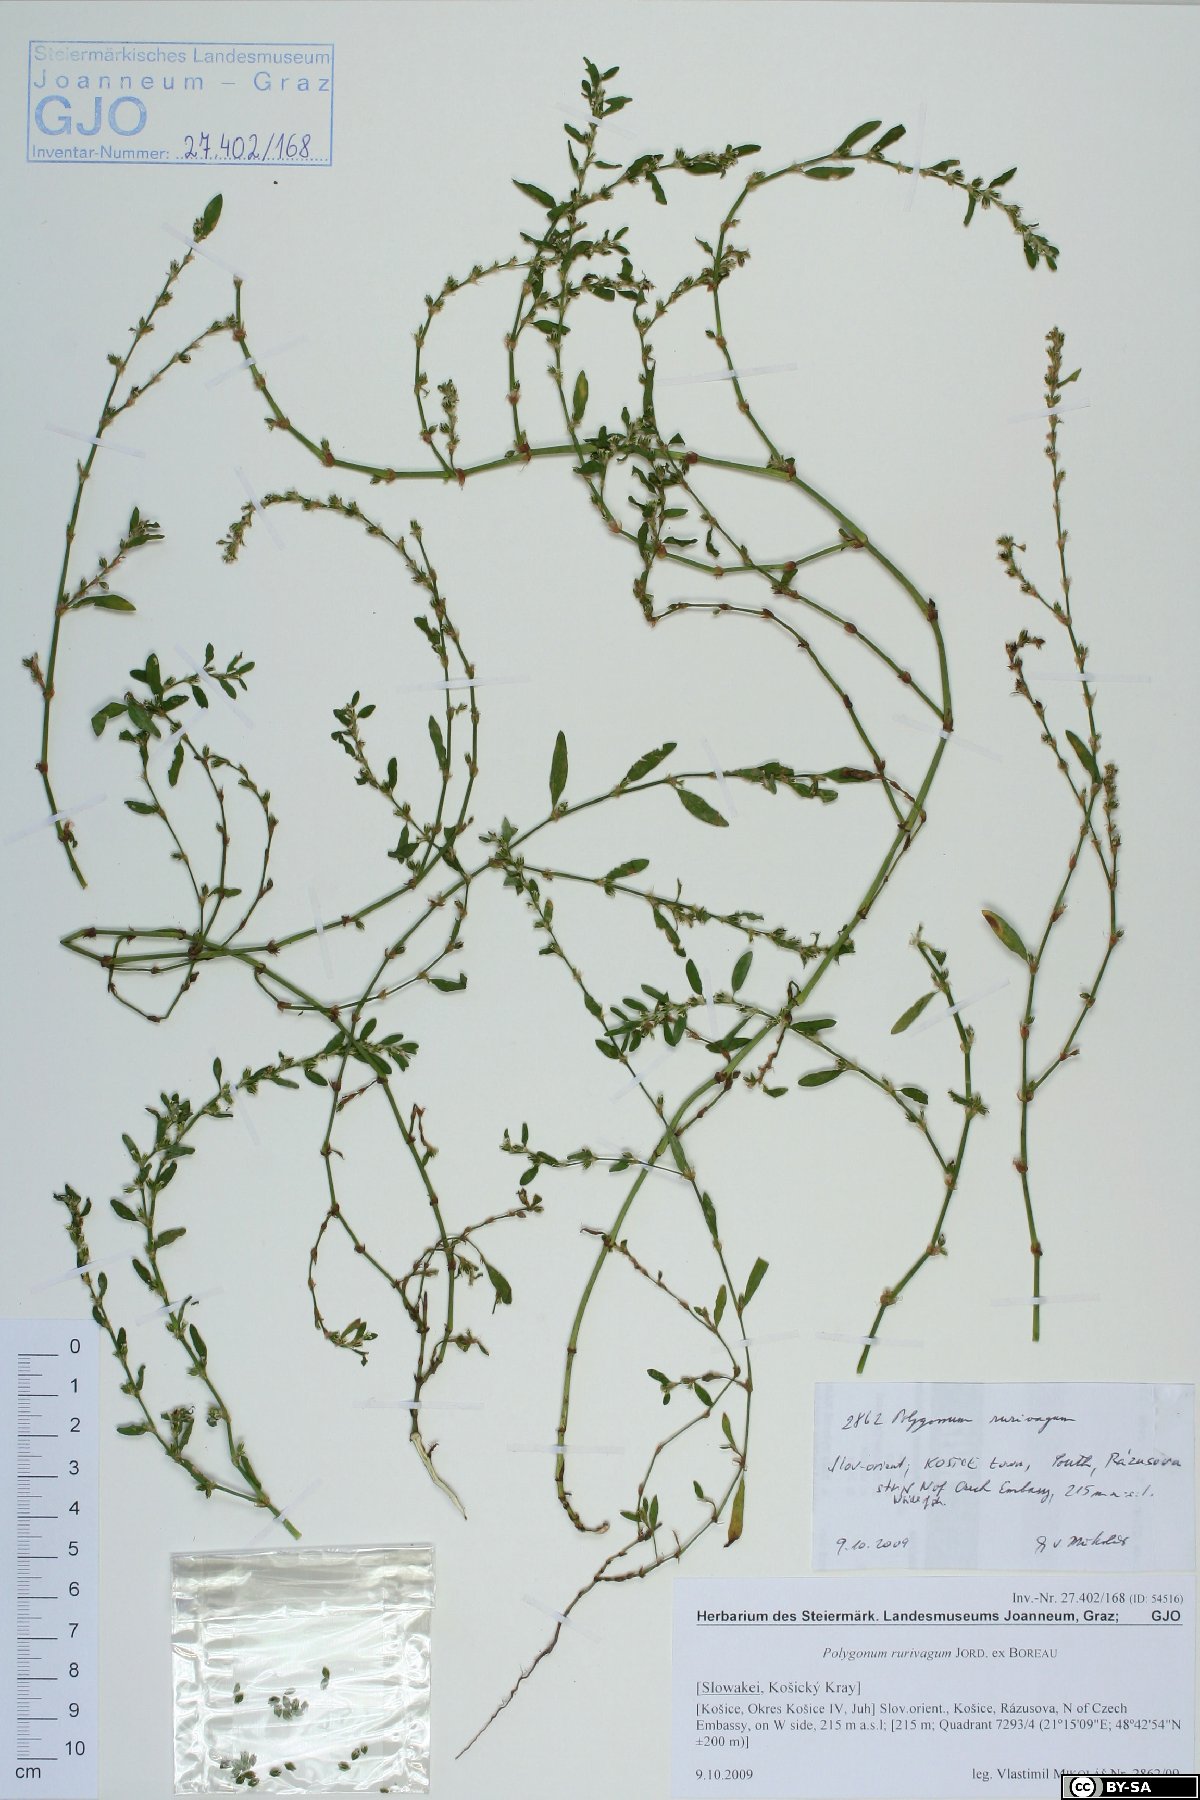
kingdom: Plantae
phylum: Tracheophyta
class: Magnoliopsida
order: Caryophyllales
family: Polygonaceae
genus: Polygonum
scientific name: Polygonum aviculare
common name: Prostrate knotweed
